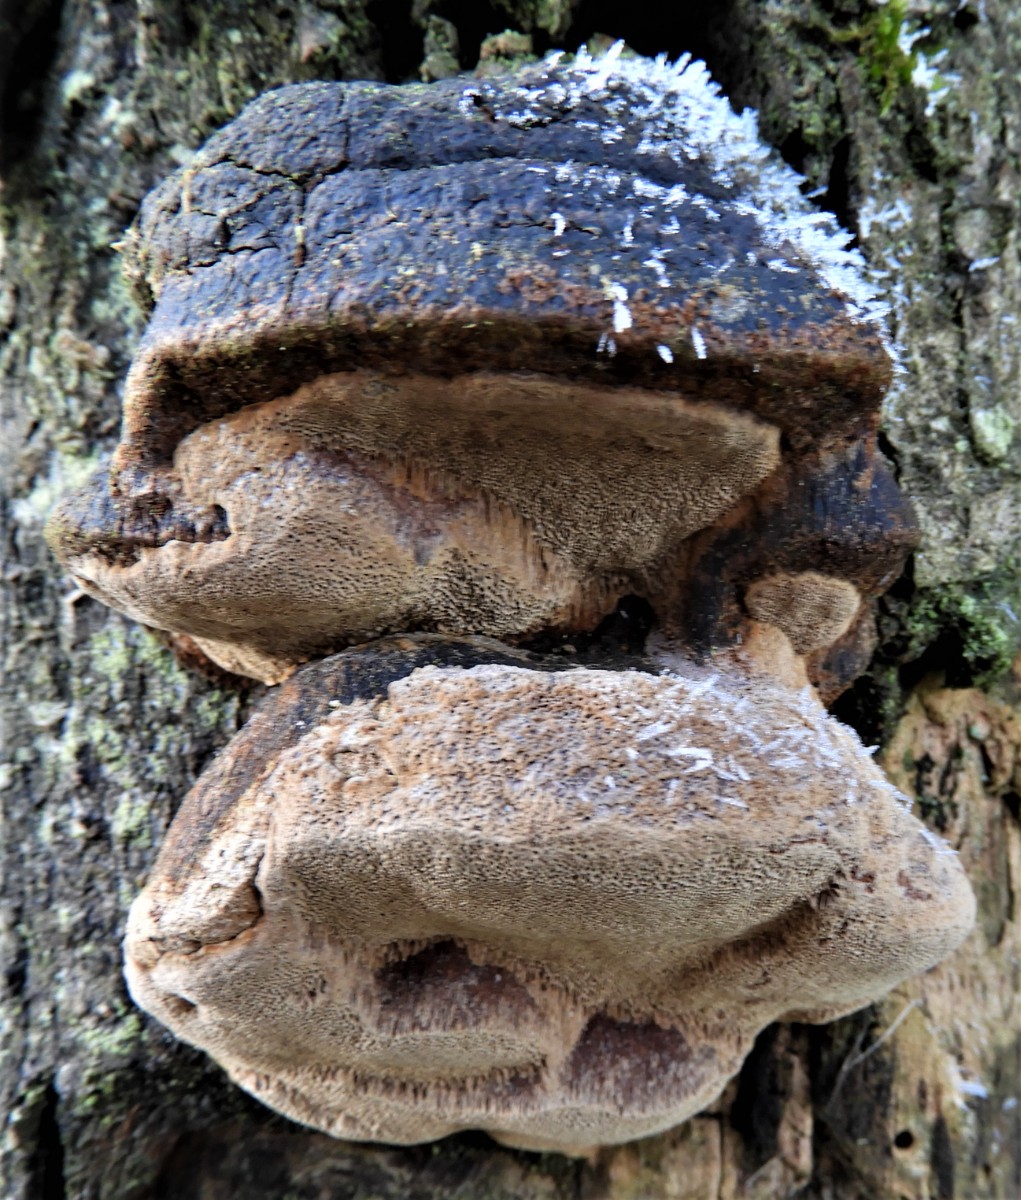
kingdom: Fungi
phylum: Basidiomycota
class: Agaricomycetes
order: Hymenochaetales
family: Hymenochaetaceae
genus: Phellinus
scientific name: Phellinus pomaceus
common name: blomme-ildporesvamp
